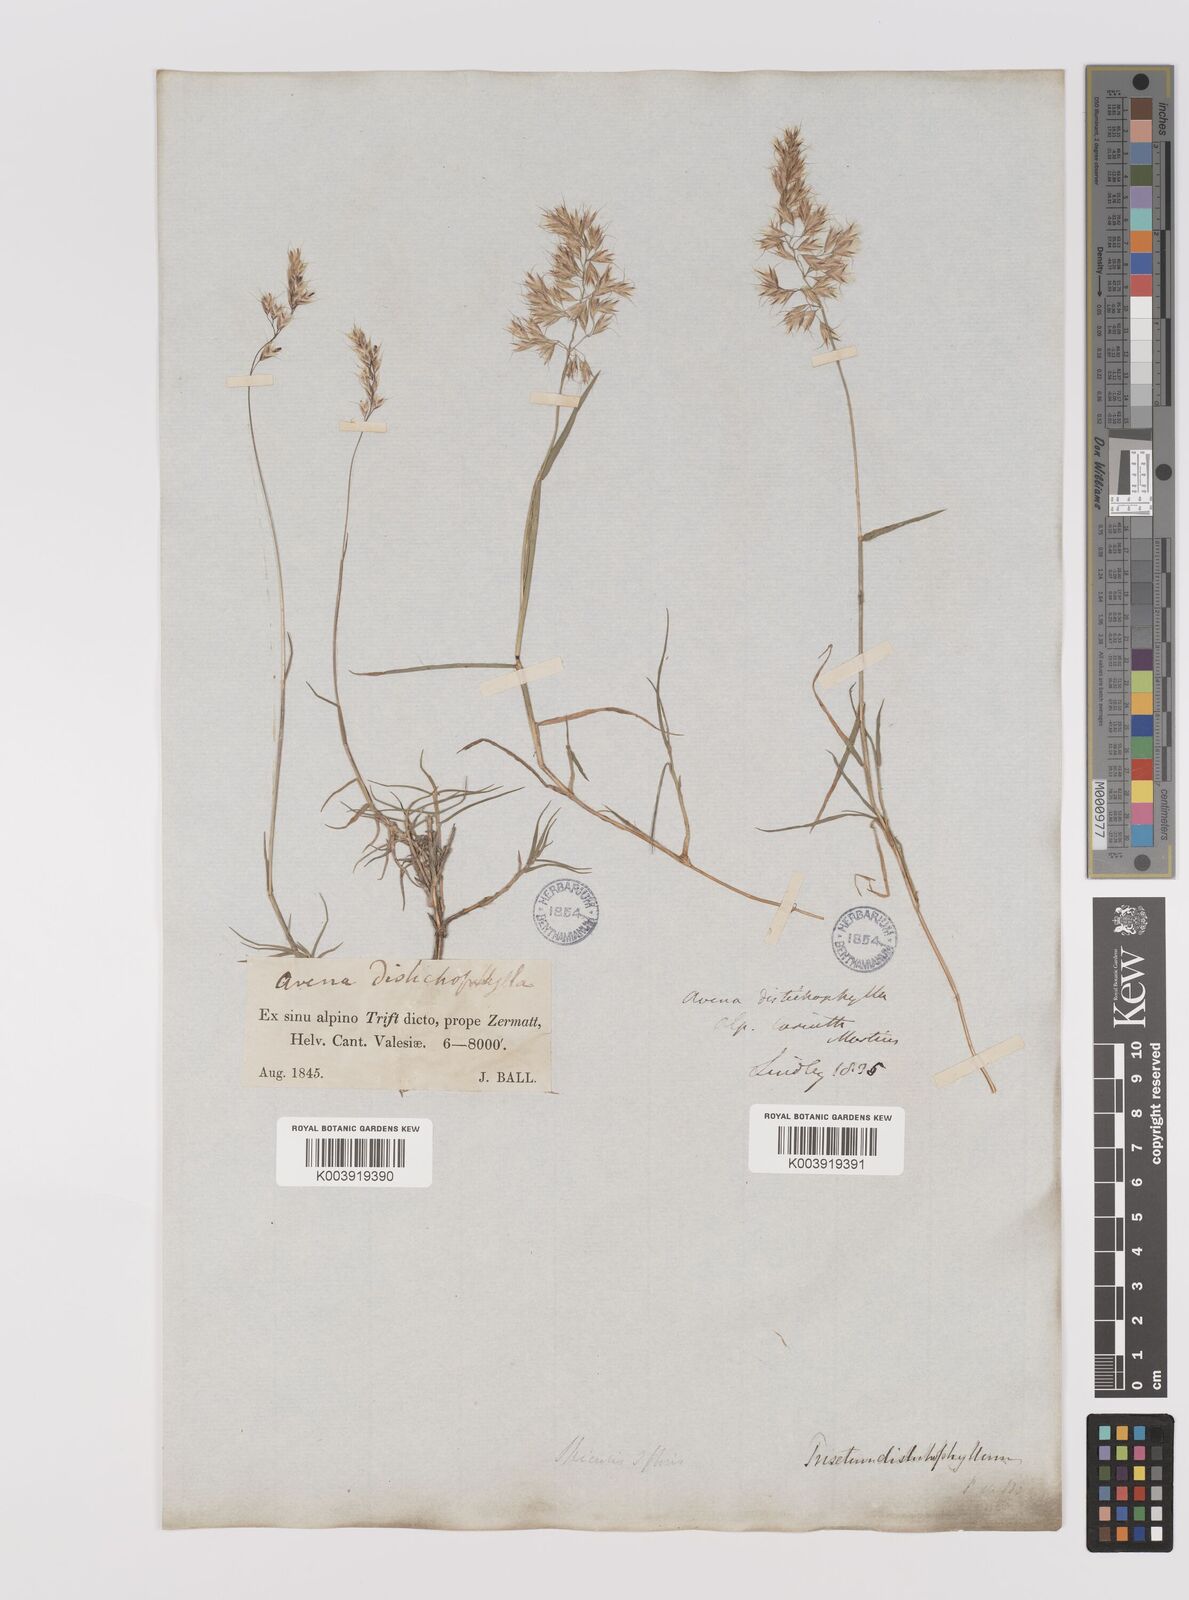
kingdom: Plantae
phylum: Tracheophyta
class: Liliopsida
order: Poales
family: Poaceae
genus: Acrospelion
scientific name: Acrospelion distichophyllum
